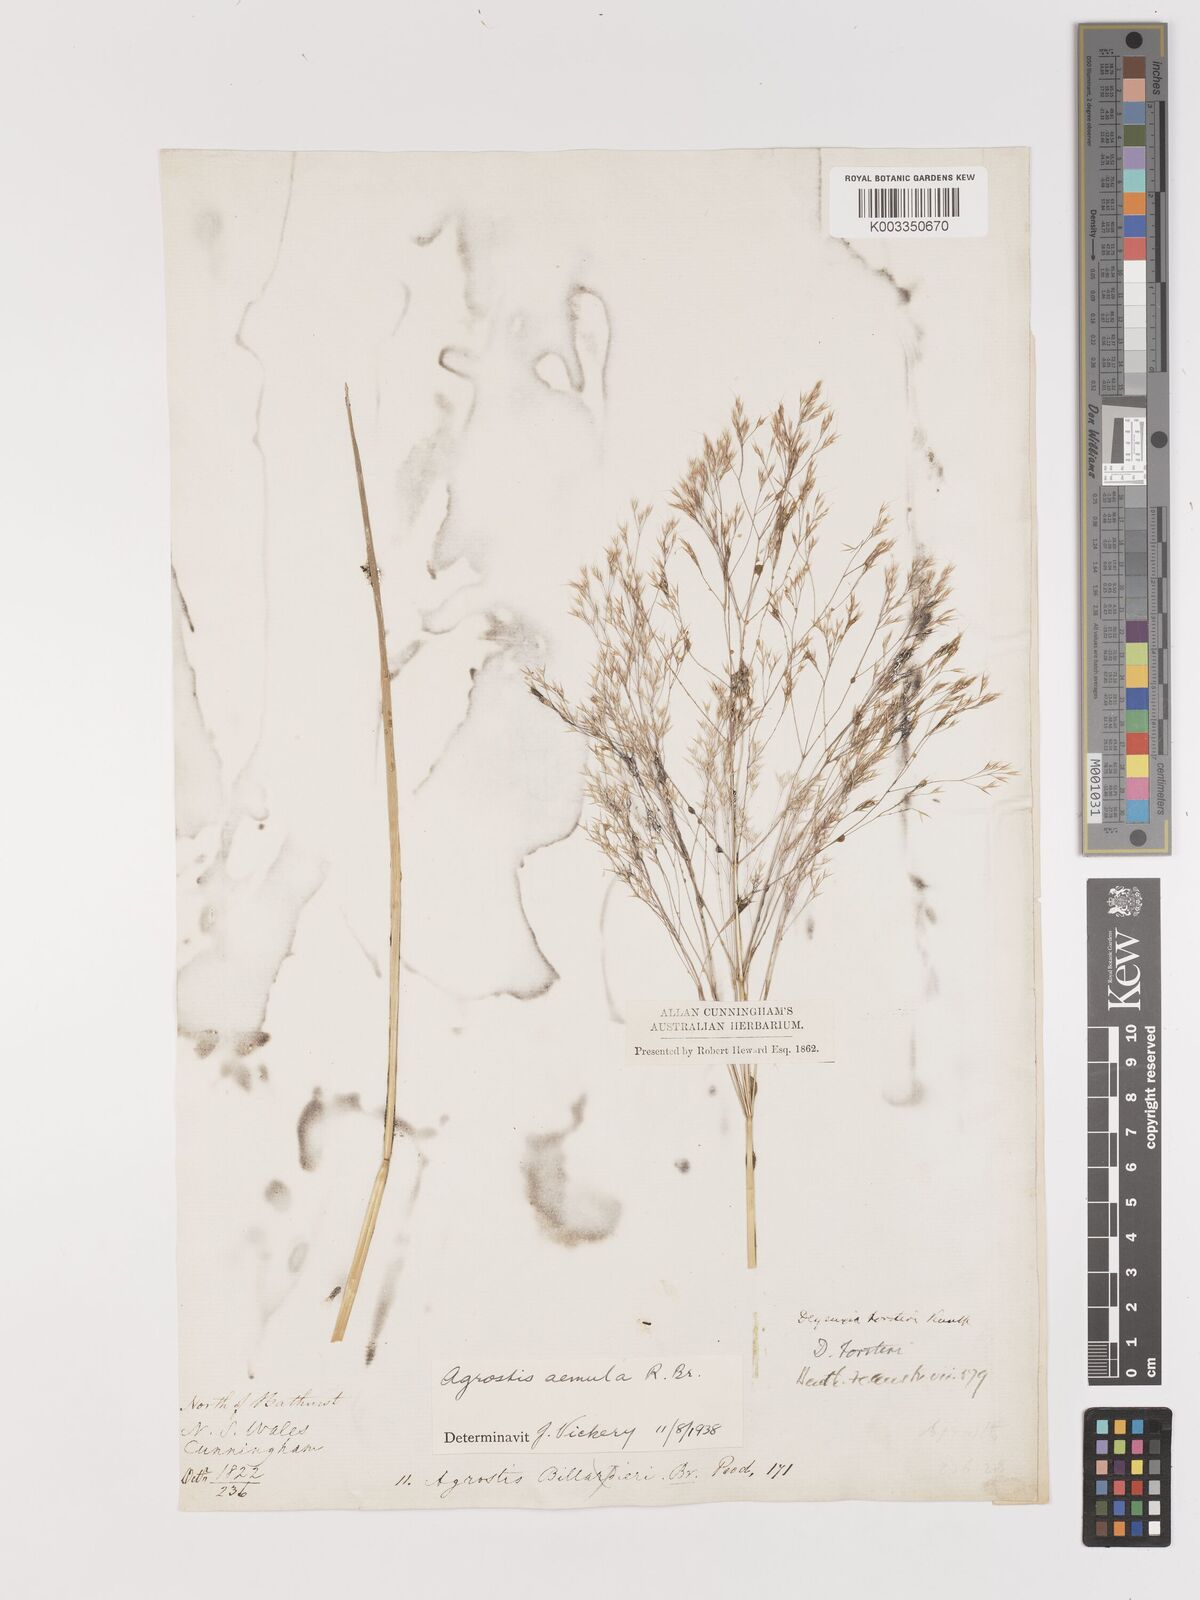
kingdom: Plantae
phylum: Tracheophyta
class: Liliopsida
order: Poales
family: Poaceae
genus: Lachnagrostis
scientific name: Lachnagrostis aemula
